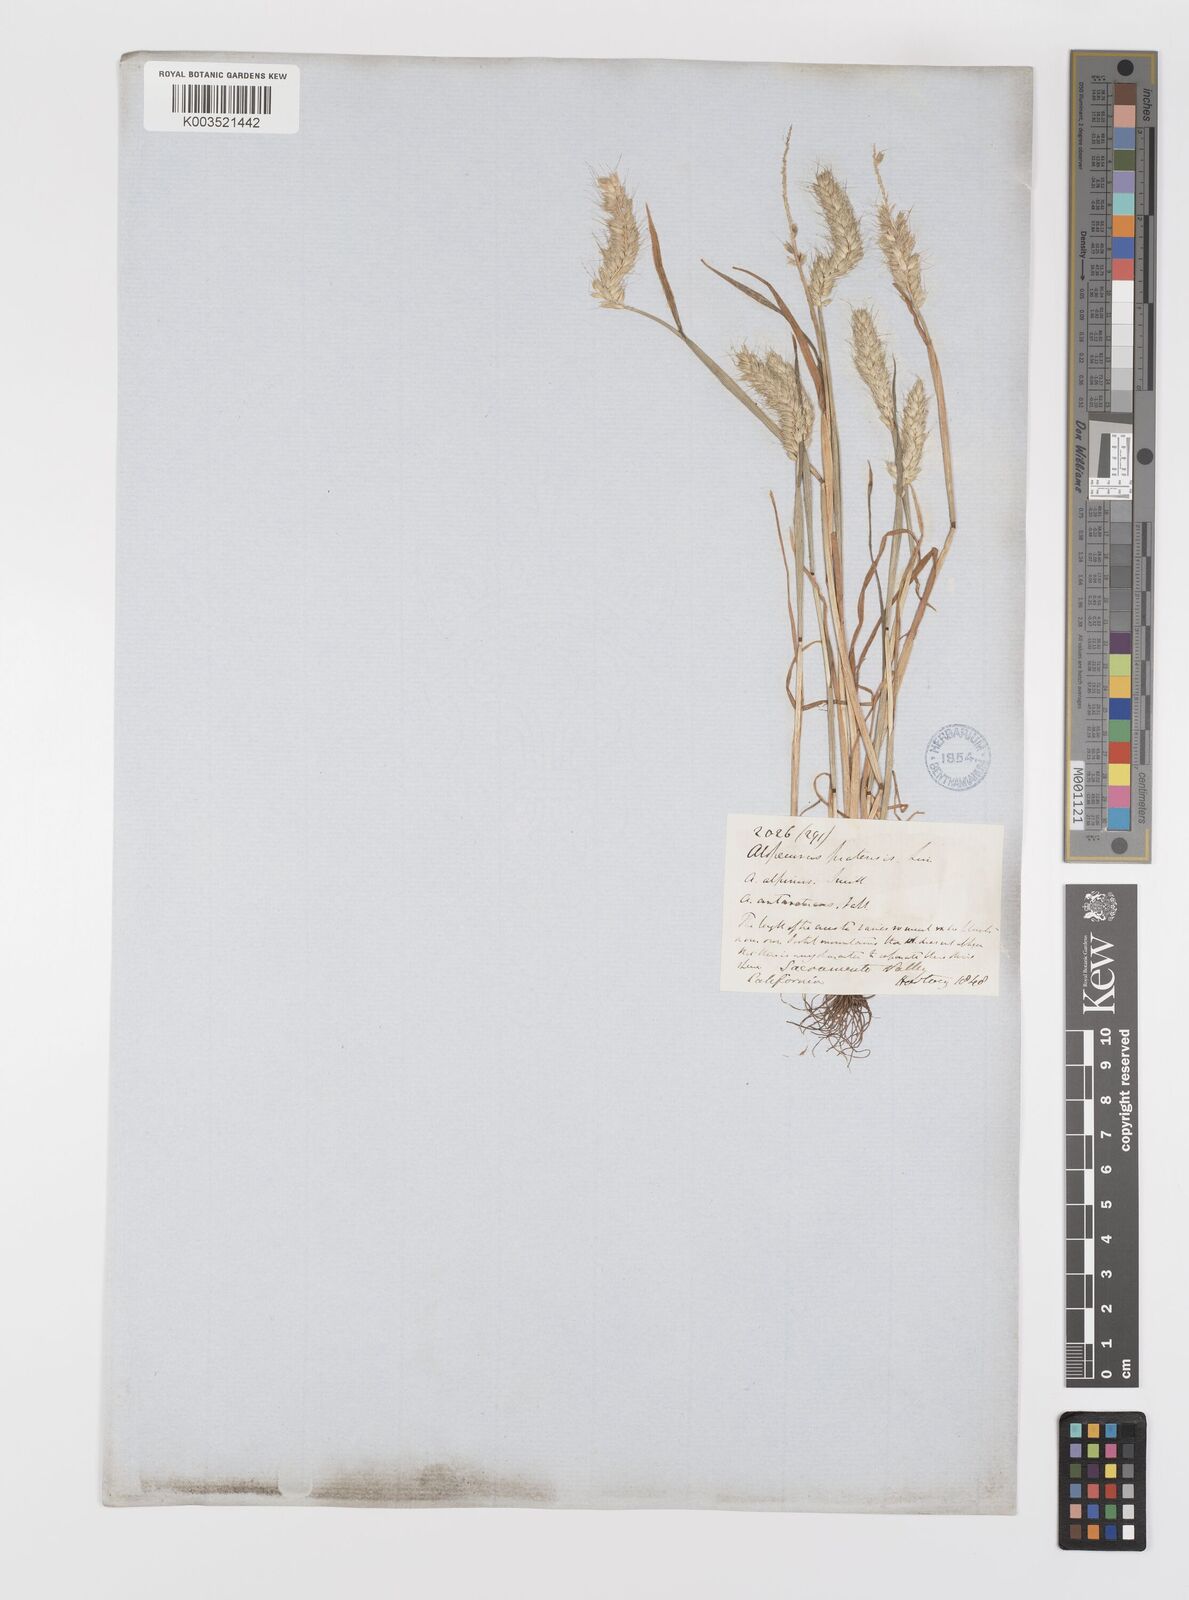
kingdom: Plantae
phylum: Tracheophyta
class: Liliopsida
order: Poales
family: Poaceae
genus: Alopecurus
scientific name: Alopecurus saccatus
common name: Pacific foxtail
